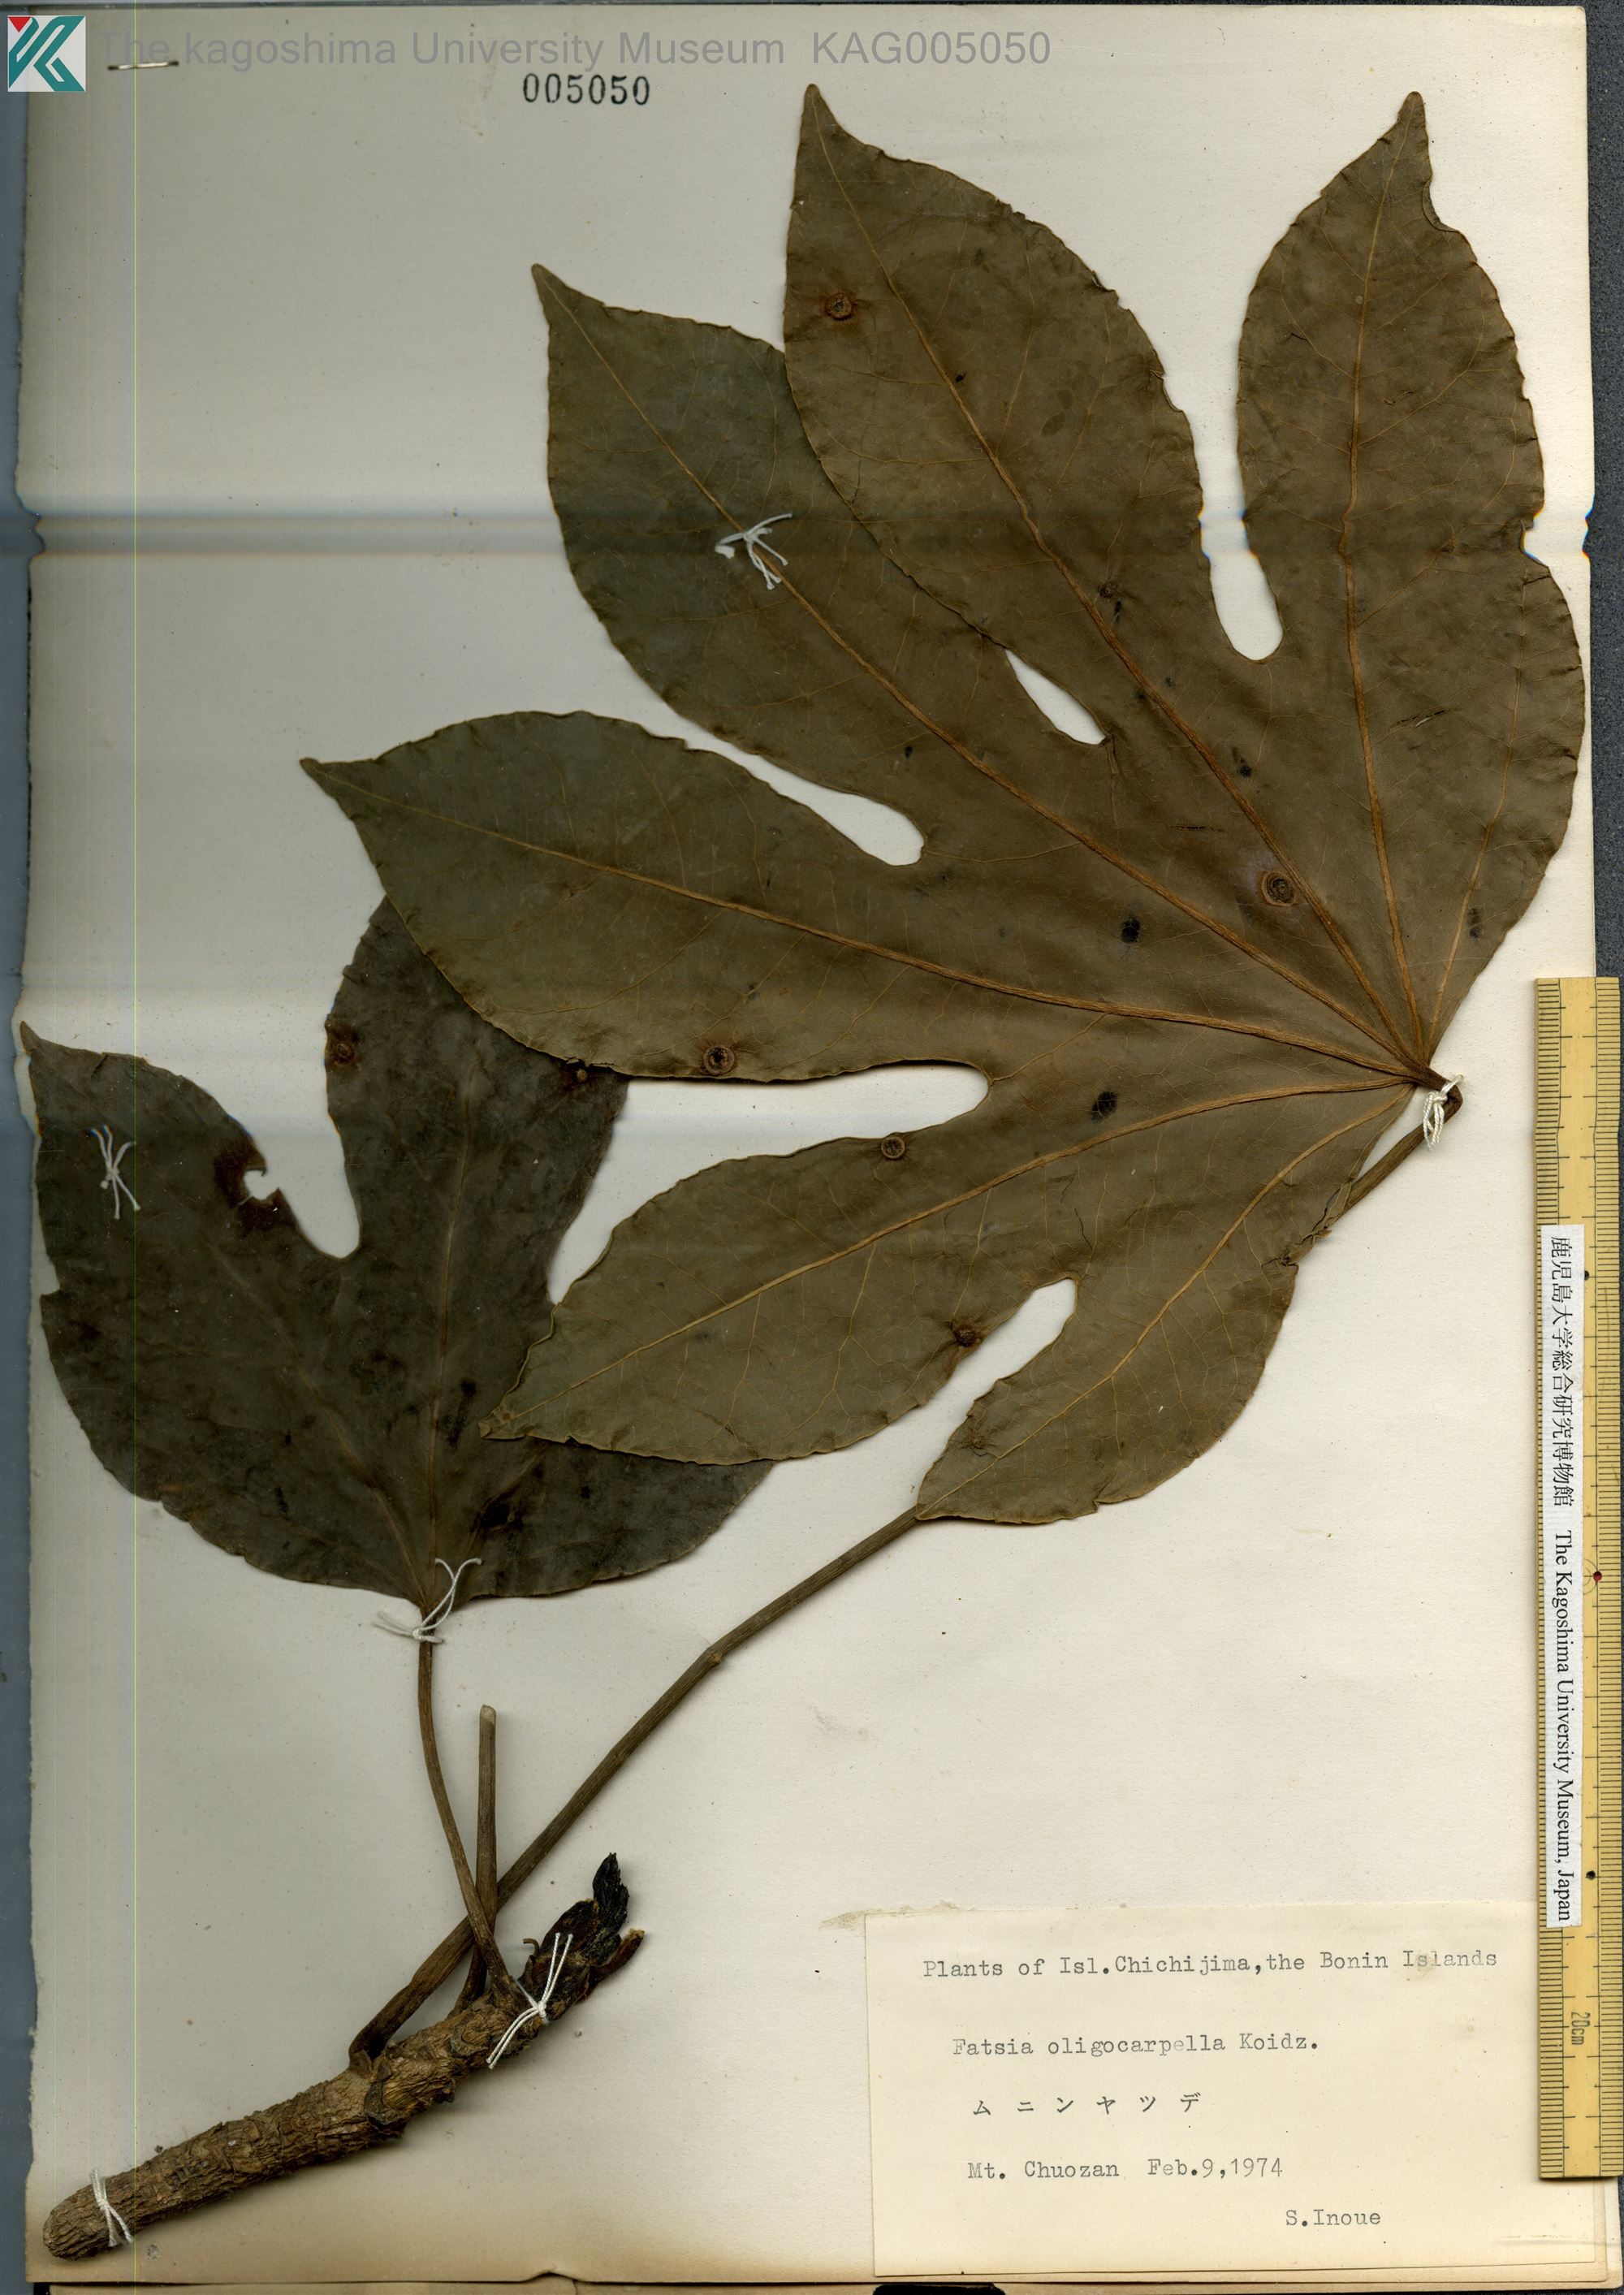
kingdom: Plantae
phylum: Tracheophyta
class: Magnoliopsida
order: Apiales
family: Araliaceae
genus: Fatsia
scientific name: Fatsia oligocarpella
